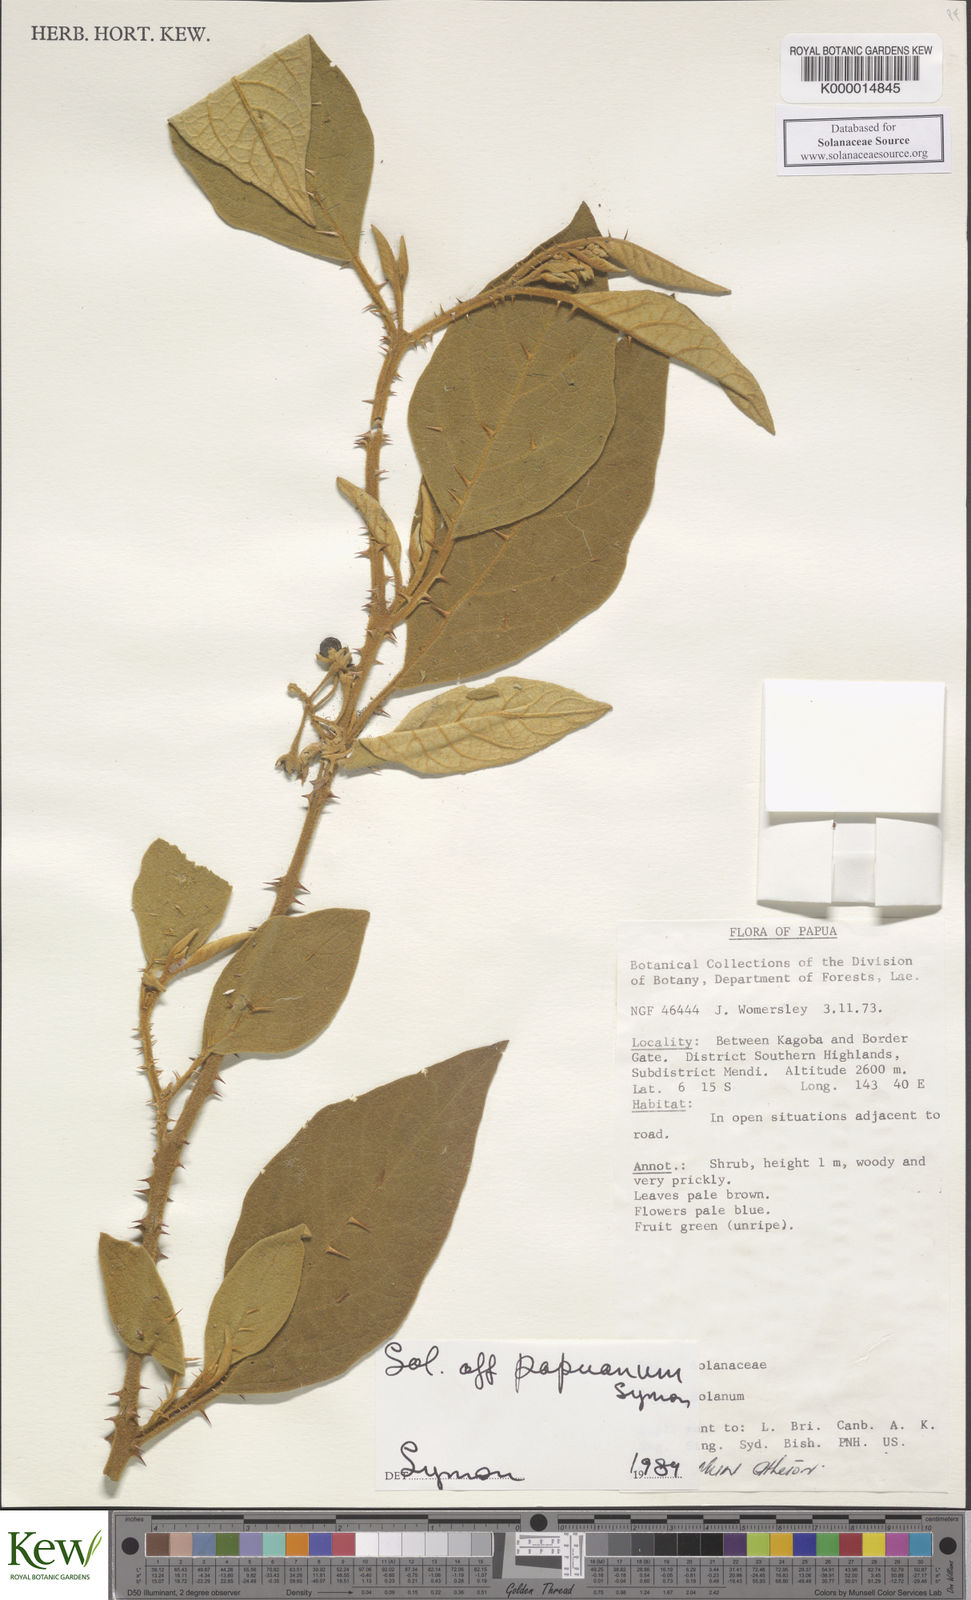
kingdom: Plantae
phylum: Tracheophyta
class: Magnoliopsida
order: Solanales
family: Solanaceae
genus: Solanum
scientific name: Solanum papuanum
